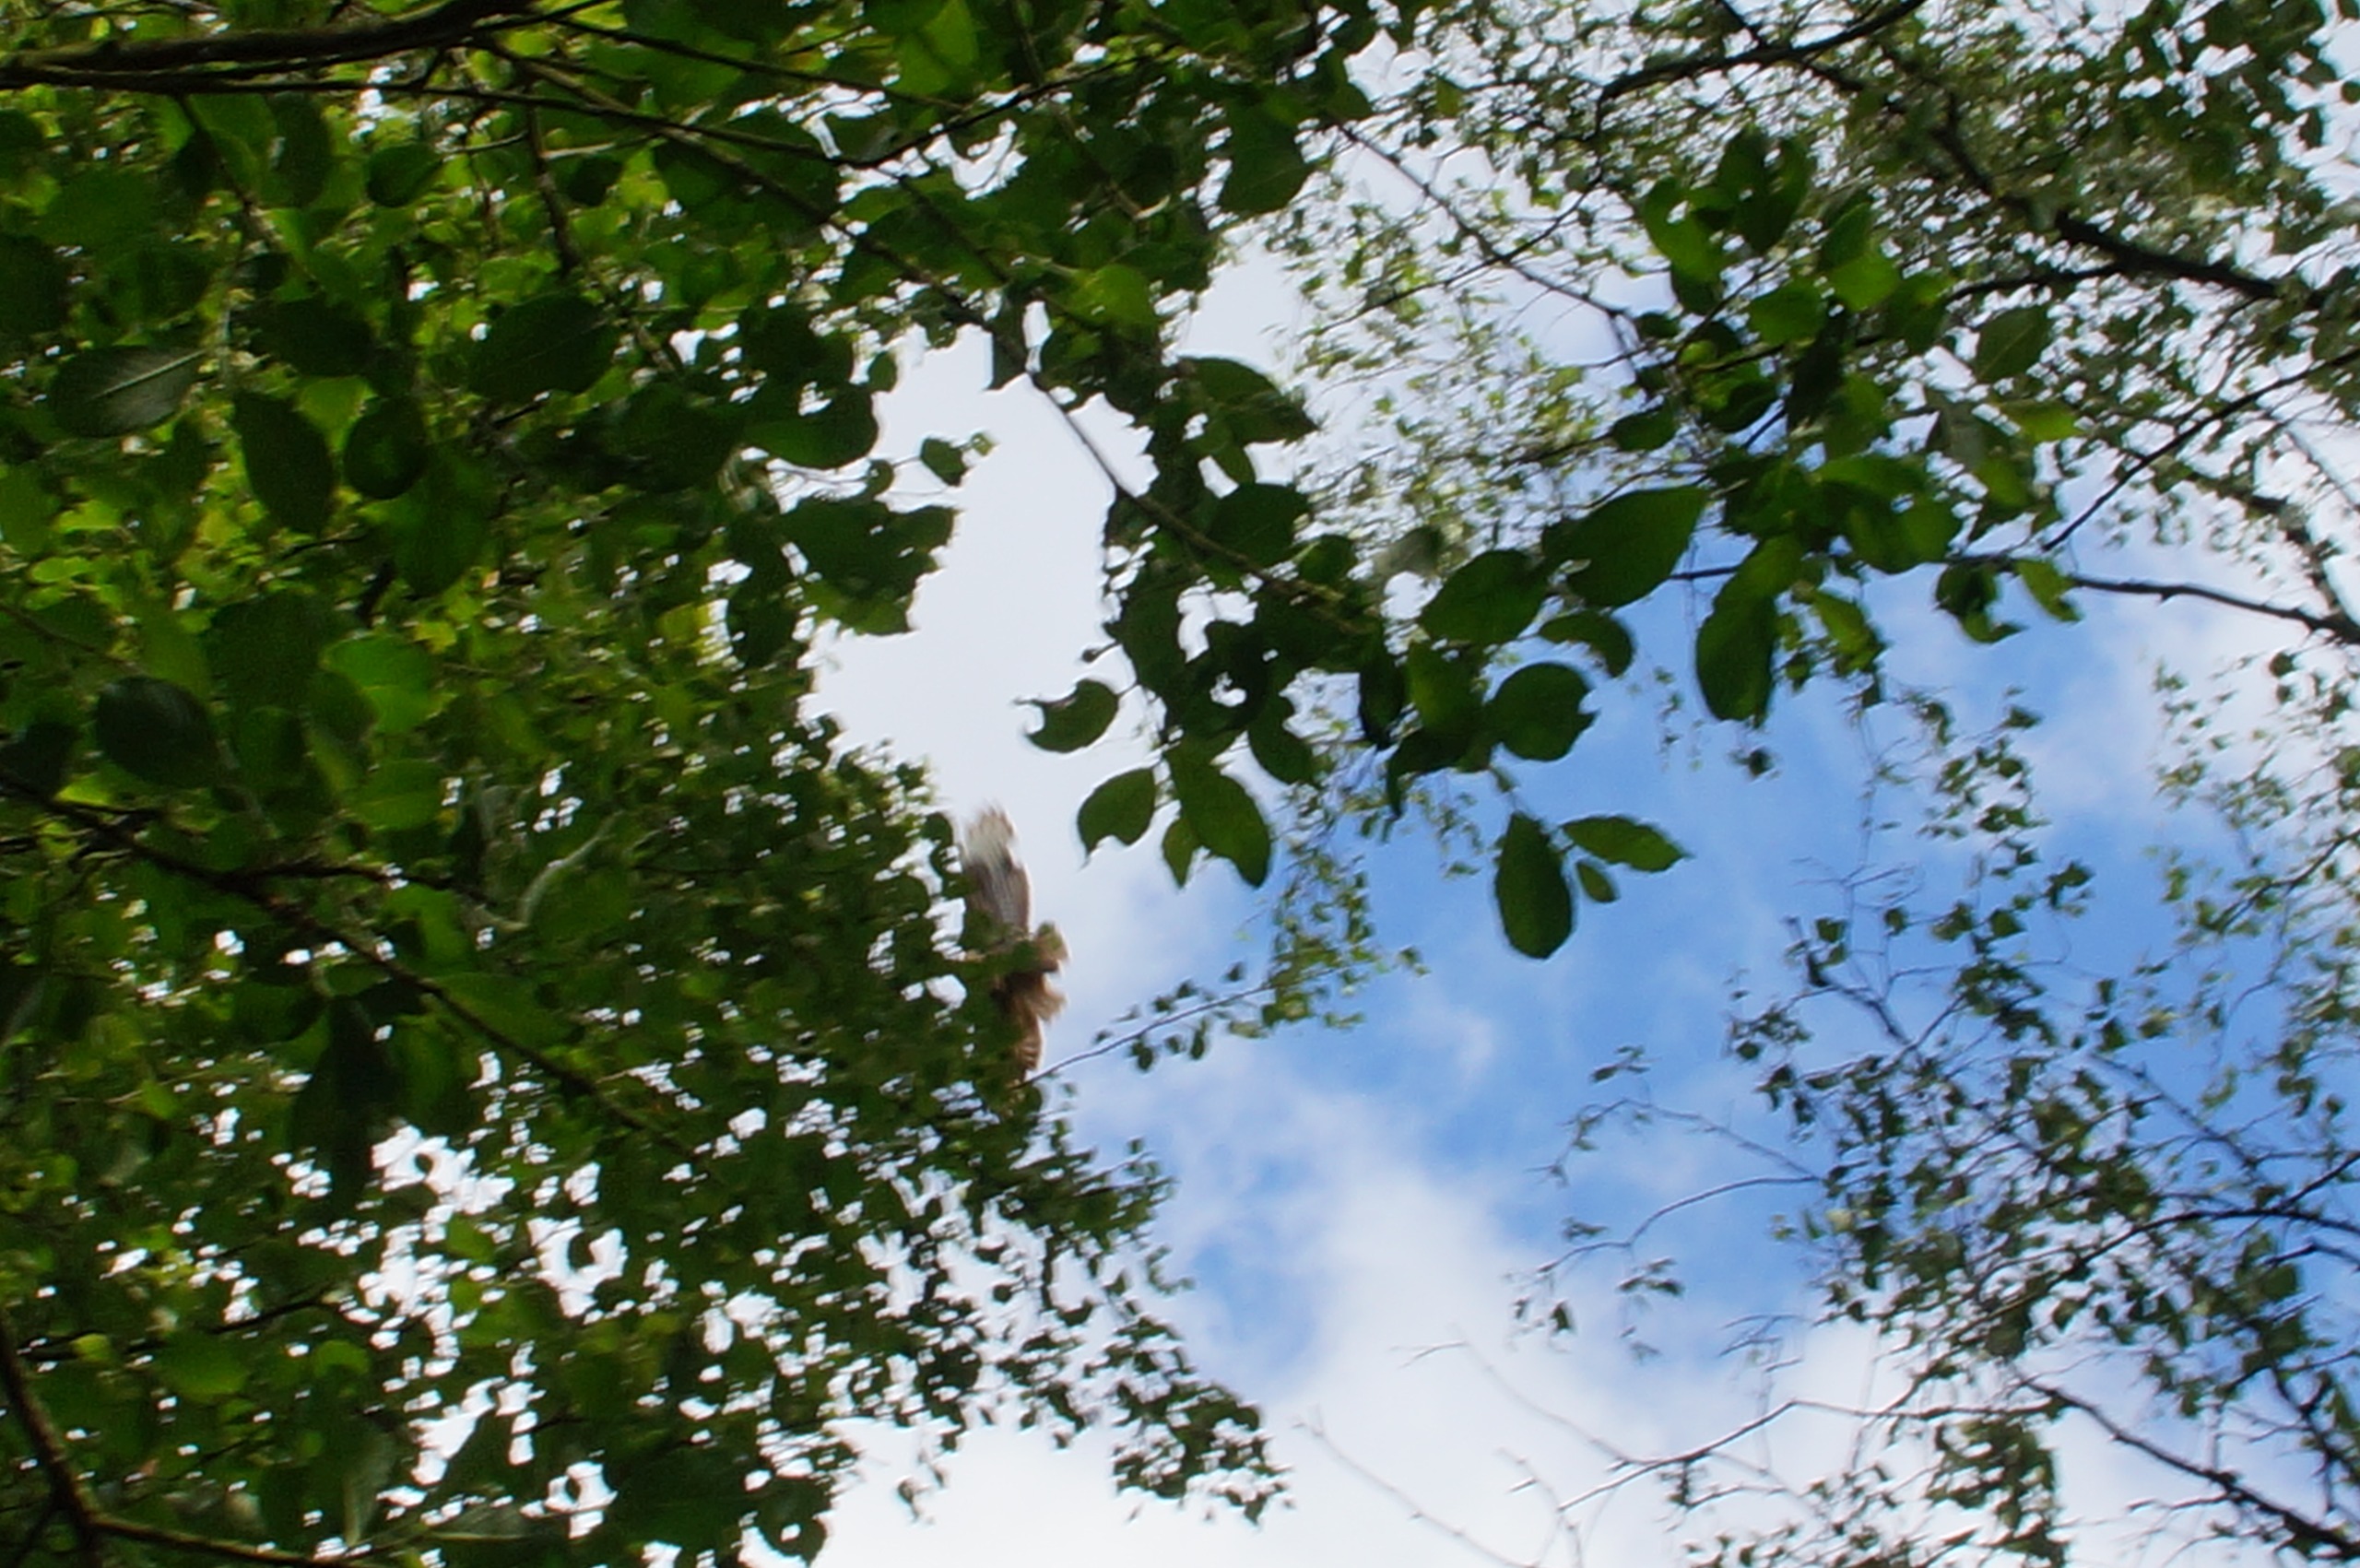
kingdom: Animalia
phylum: Chordata
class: Aves
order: Accipitriformes
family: Accipitridae
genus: Buteo
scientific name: Buteo buteo
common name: Musvåge
